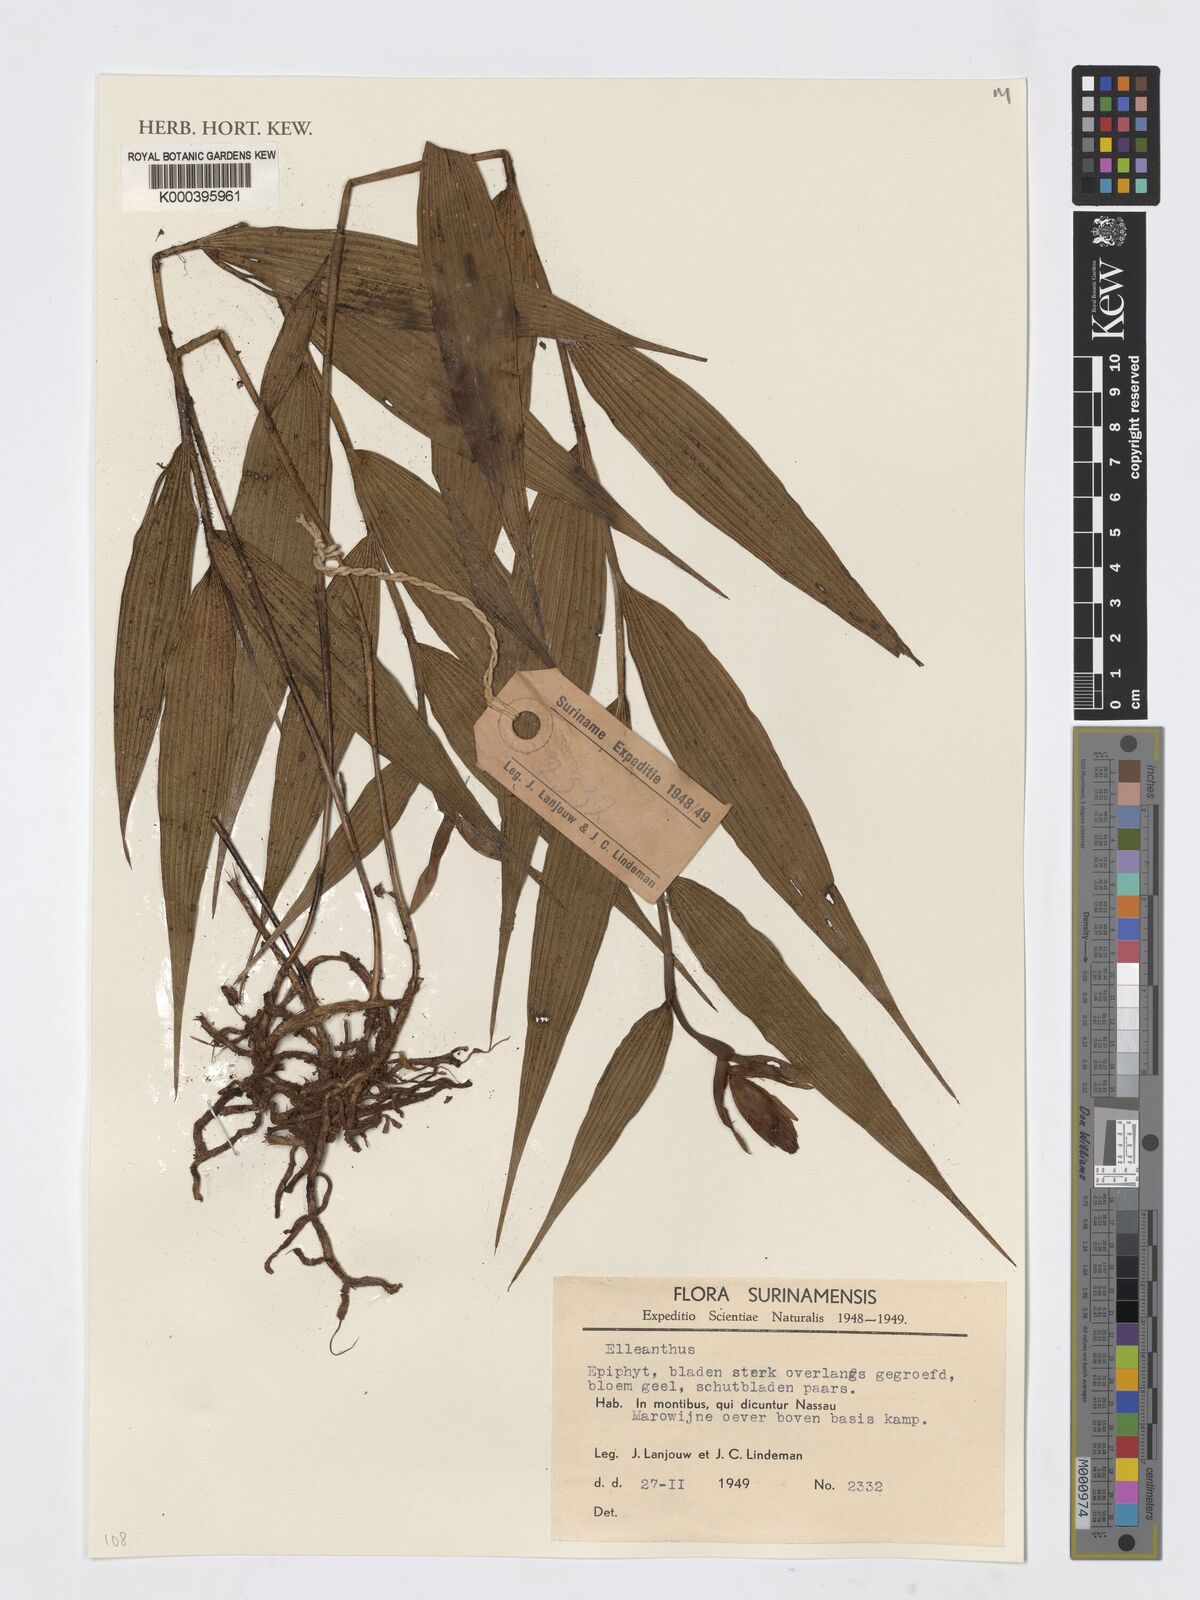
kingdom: Plantae
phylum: Tracheophyta
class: Liliopsida
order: Asparagales
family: Orchidaceae
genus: Elleanthus
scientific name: Elleanthus
